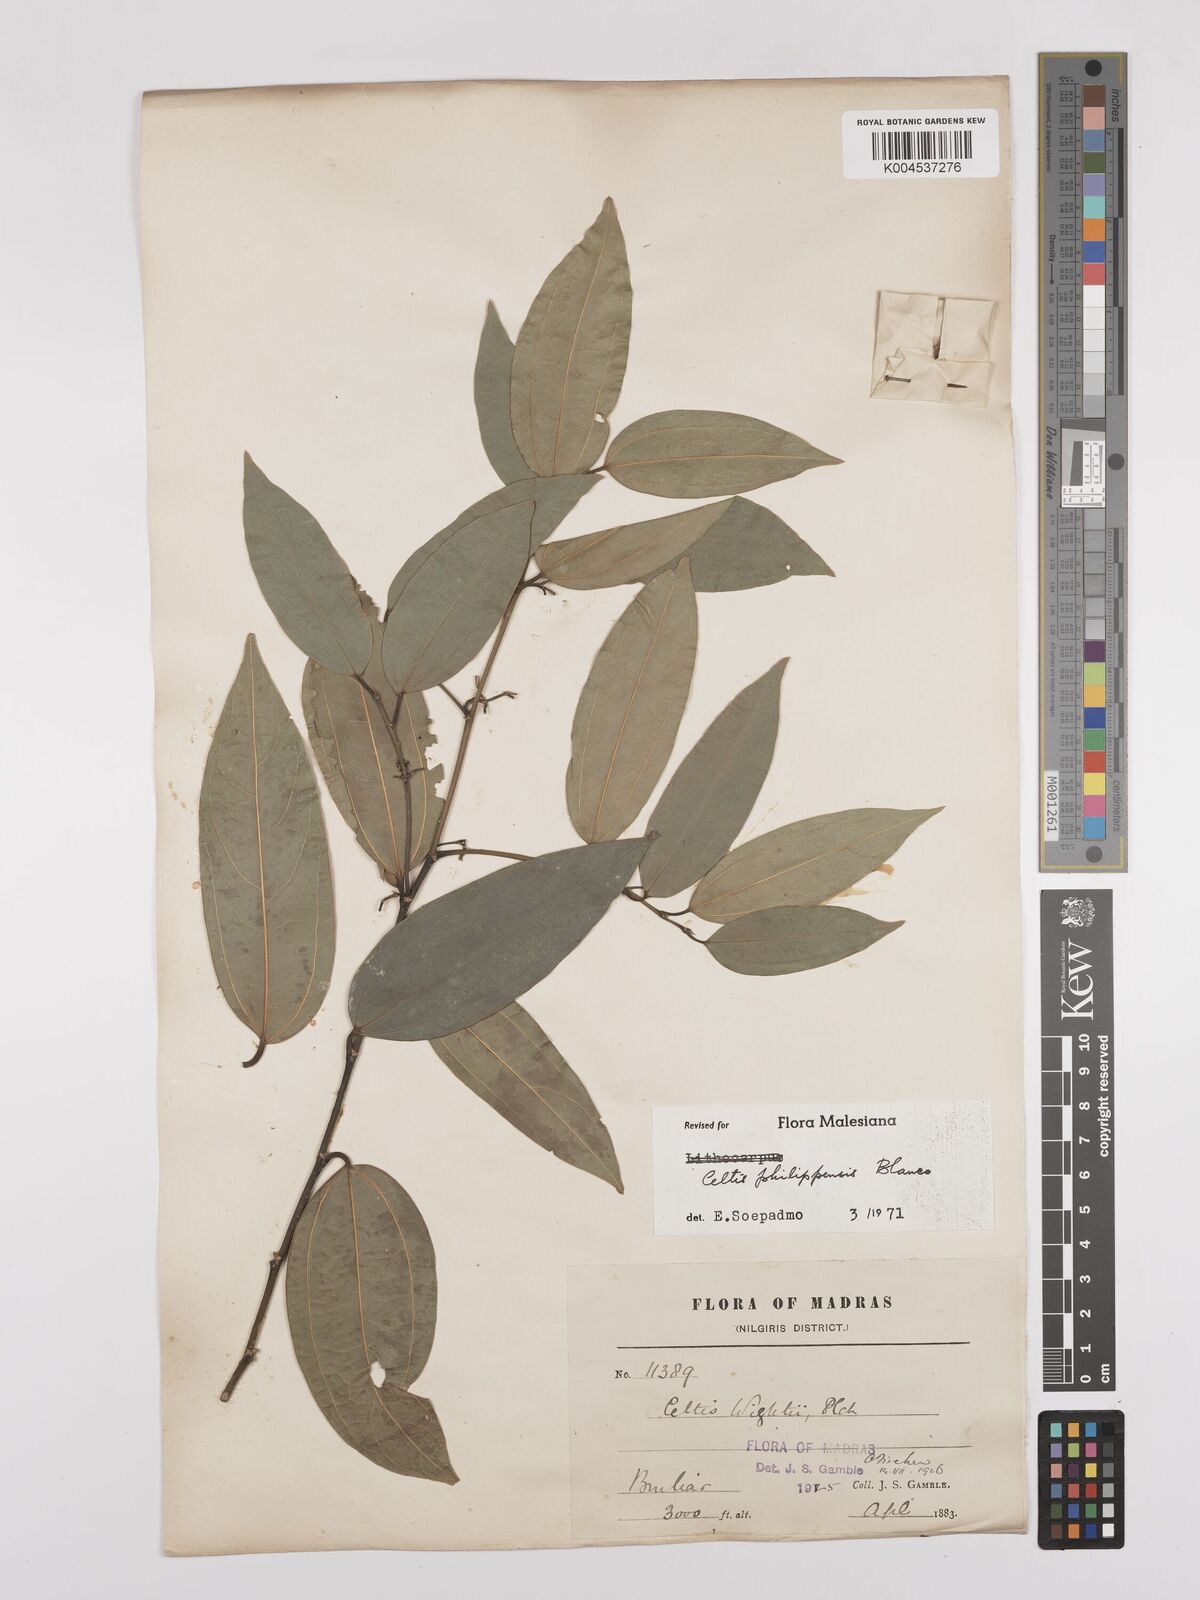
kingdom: Plantae
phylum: Tracheophyta
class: Magnoliopsida
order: Rosales
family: Cannabaceae
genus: Celtis
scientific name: Celtis philippensis
